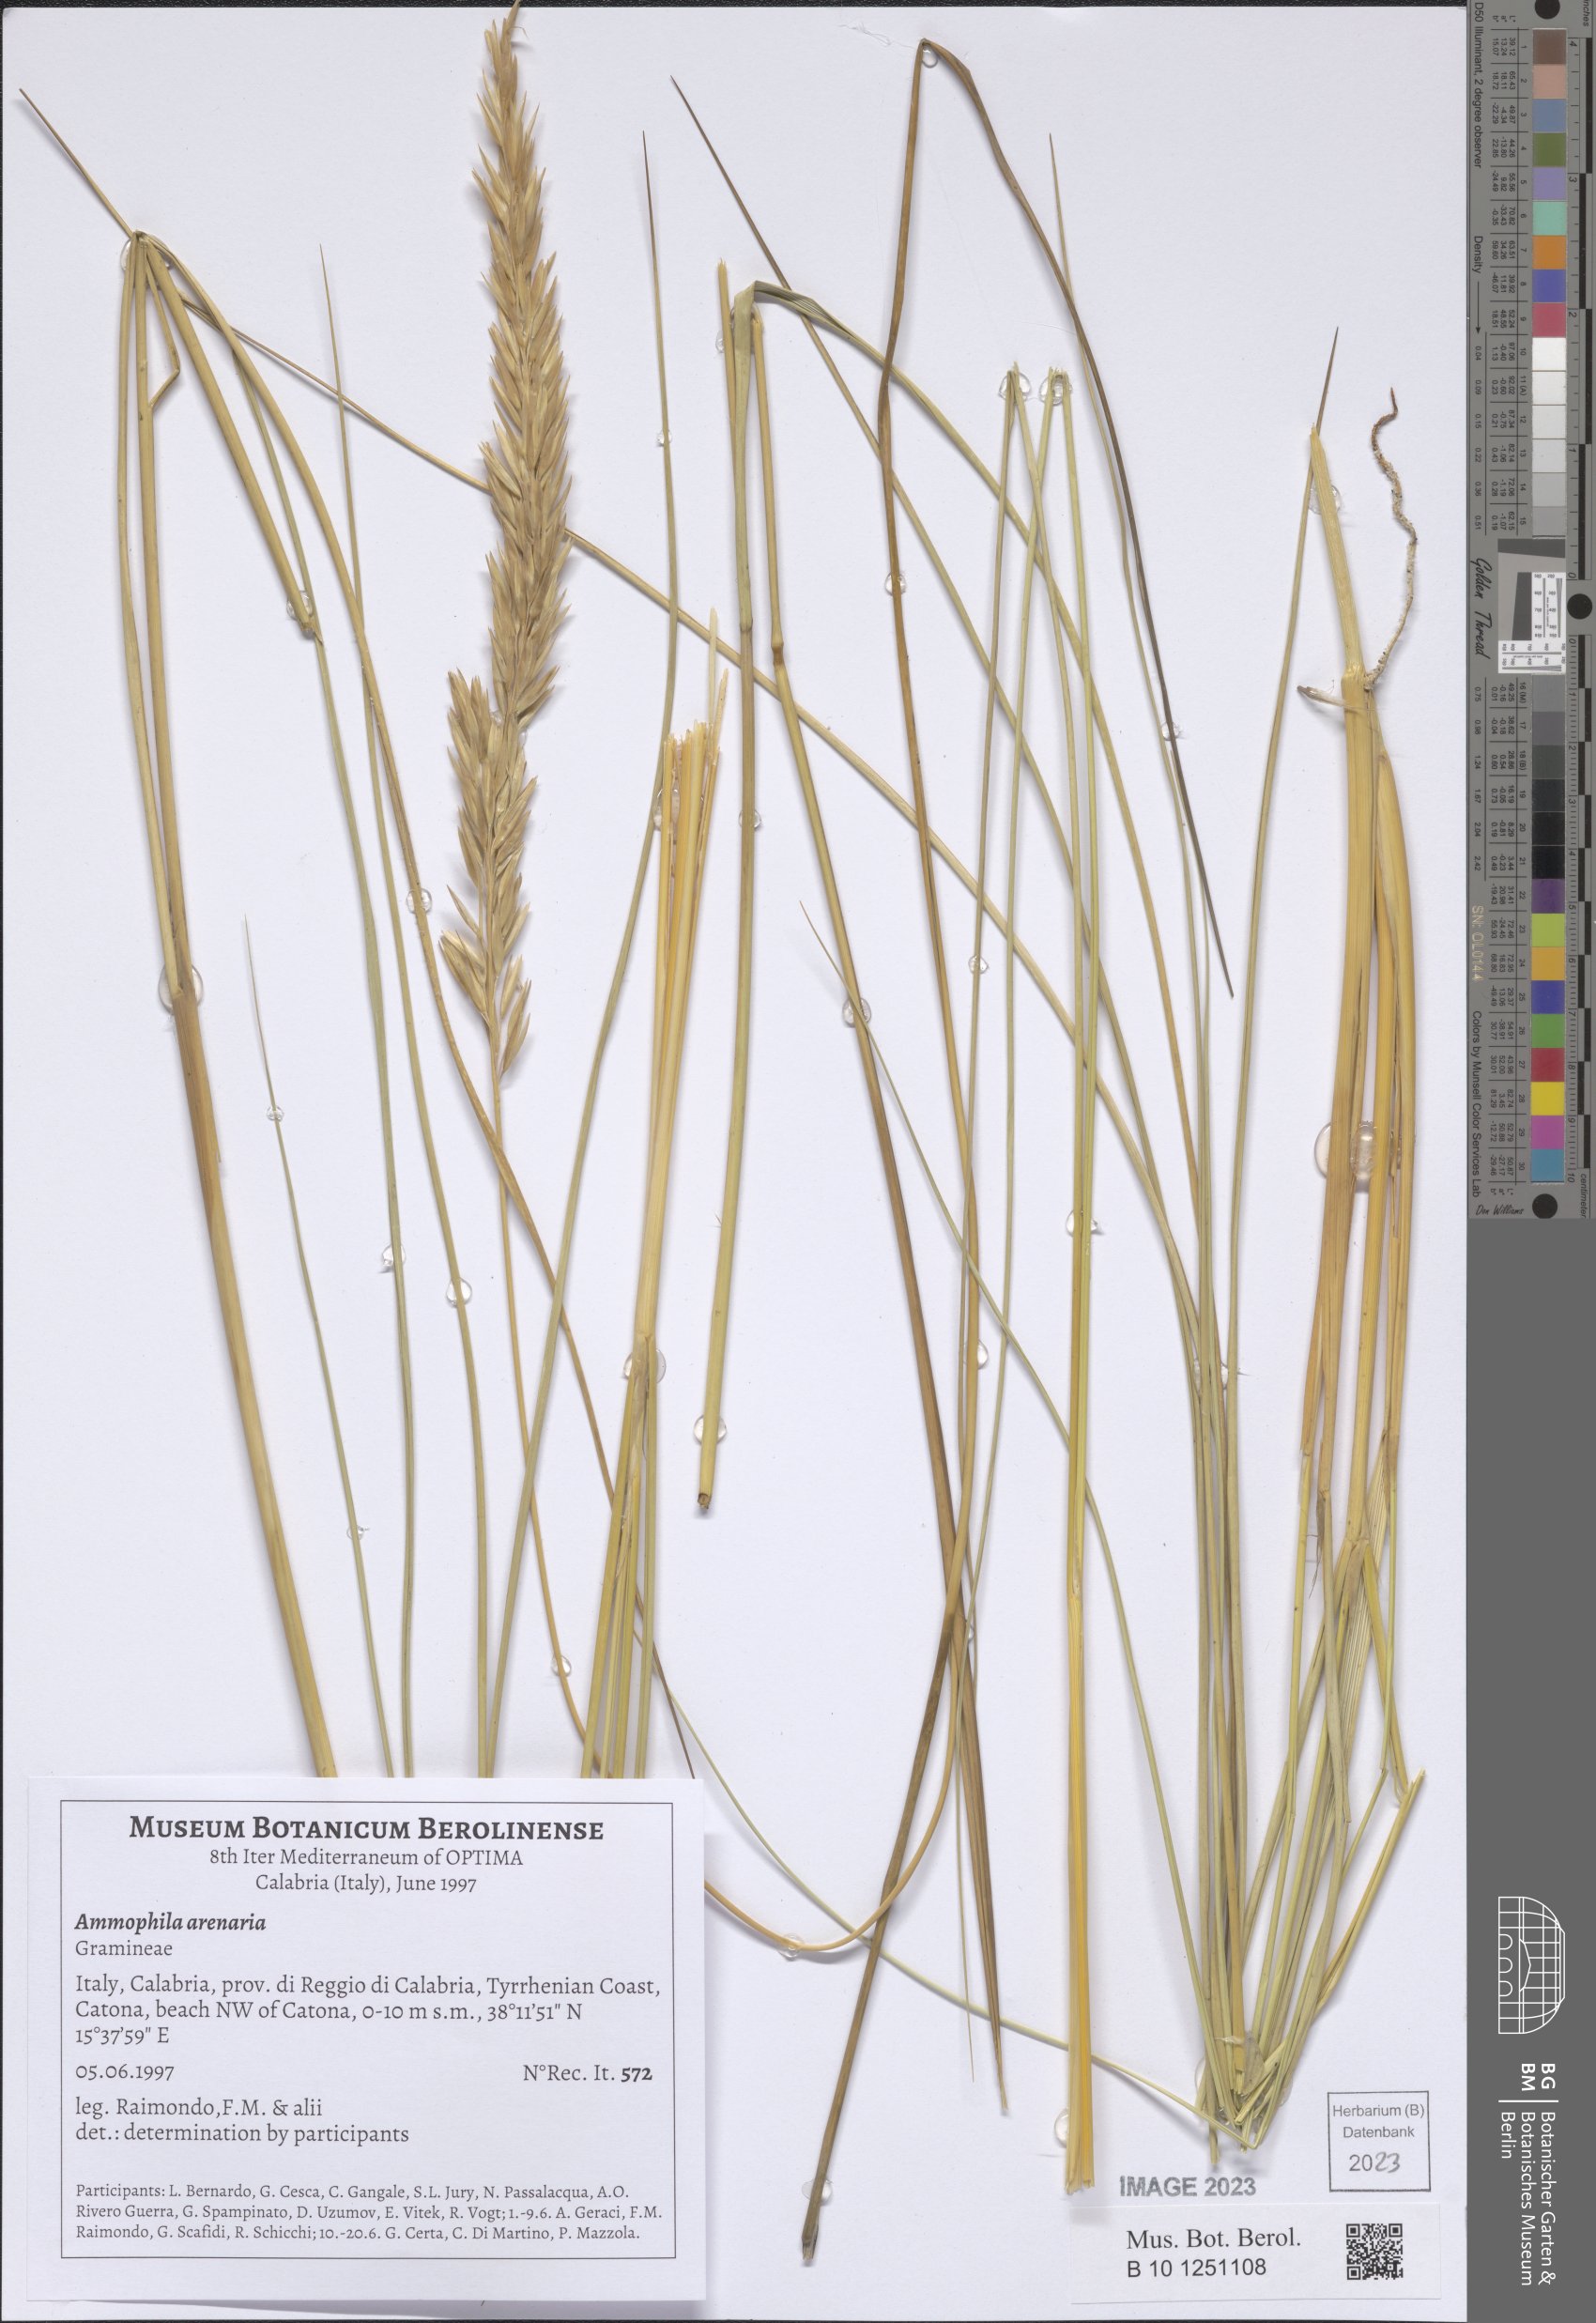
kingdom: Plantae
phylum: Tracheophyta
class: Liliopsida
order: Poales
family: Poaceae
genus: Calamagrostis
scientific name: Calamagrostis arenaria
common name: European beachgrass
